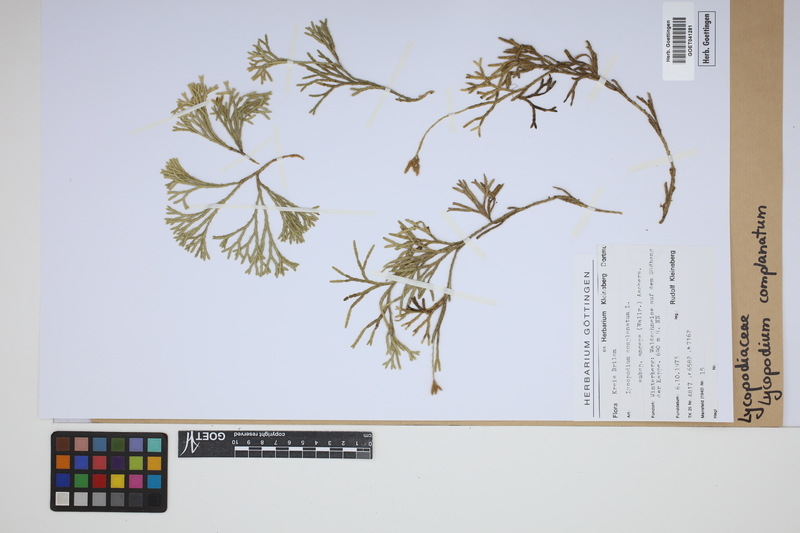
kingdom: Plantae
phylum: Tracheophyta
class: Lycopodiopsida
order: Lycopodiales
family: Lycopodiaceae
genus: Diphasiastrum
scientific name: Diphasiastrum complanatum
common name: Northern running-pine
